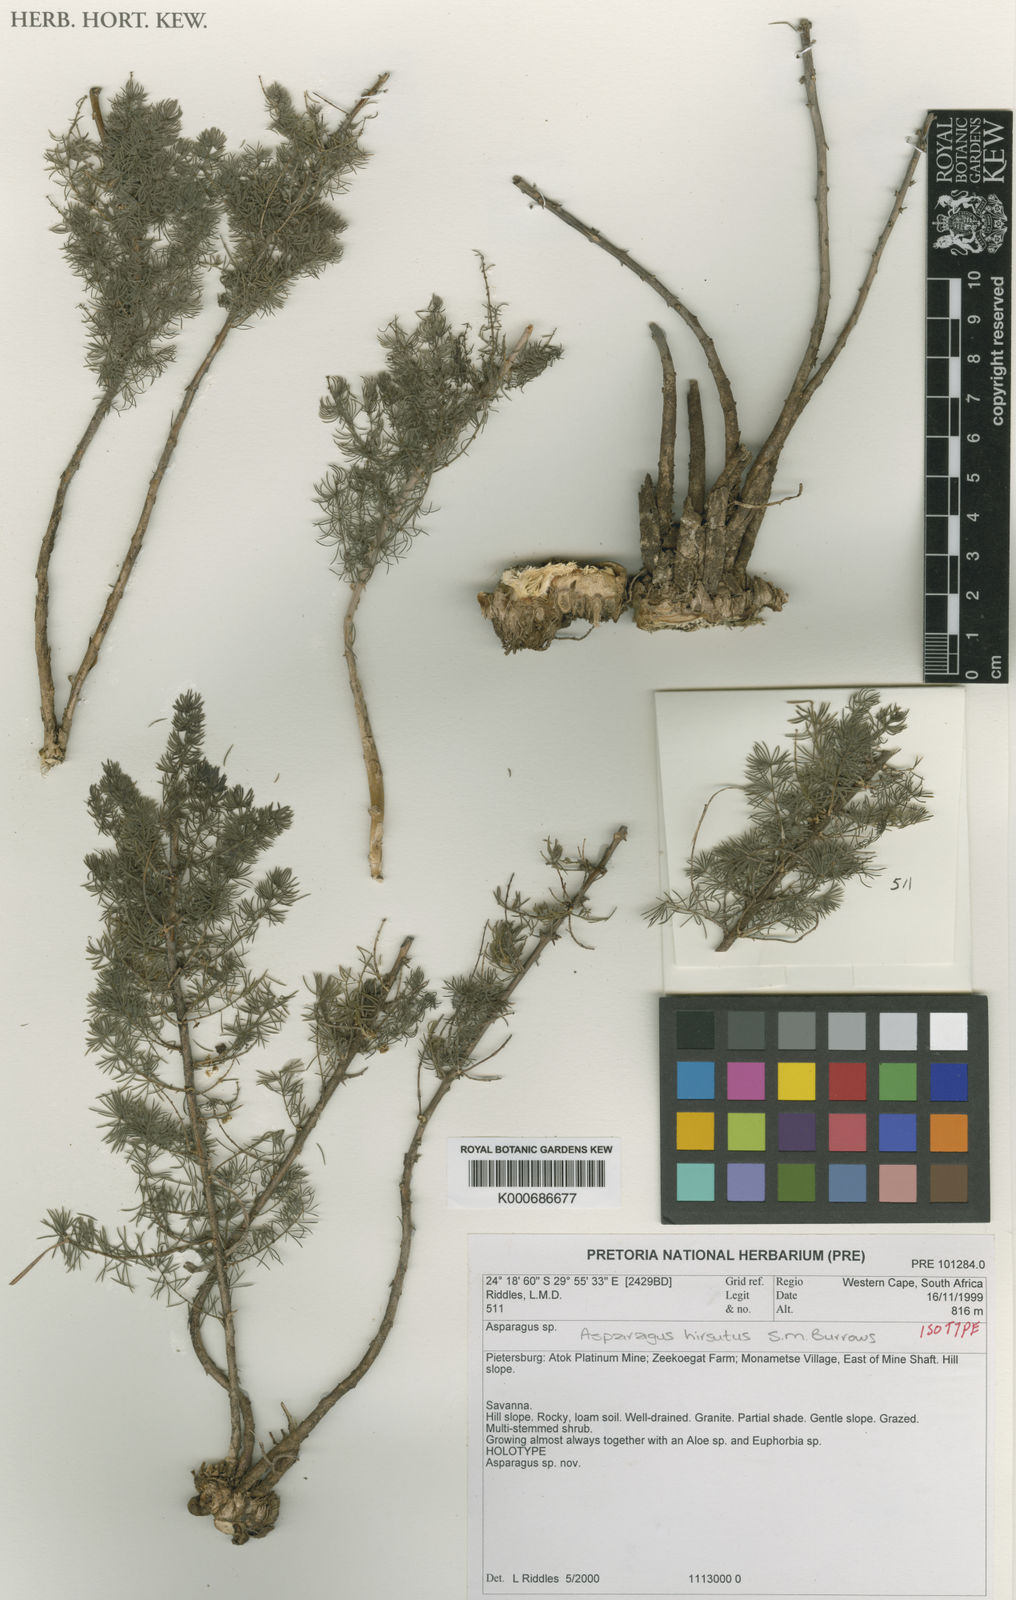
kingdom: Plantae
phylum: Tracheophyta
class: Liliopsida
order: Asparagales
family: Asparagaceae
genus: Asparagus
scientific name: Asparagus hirsutus
